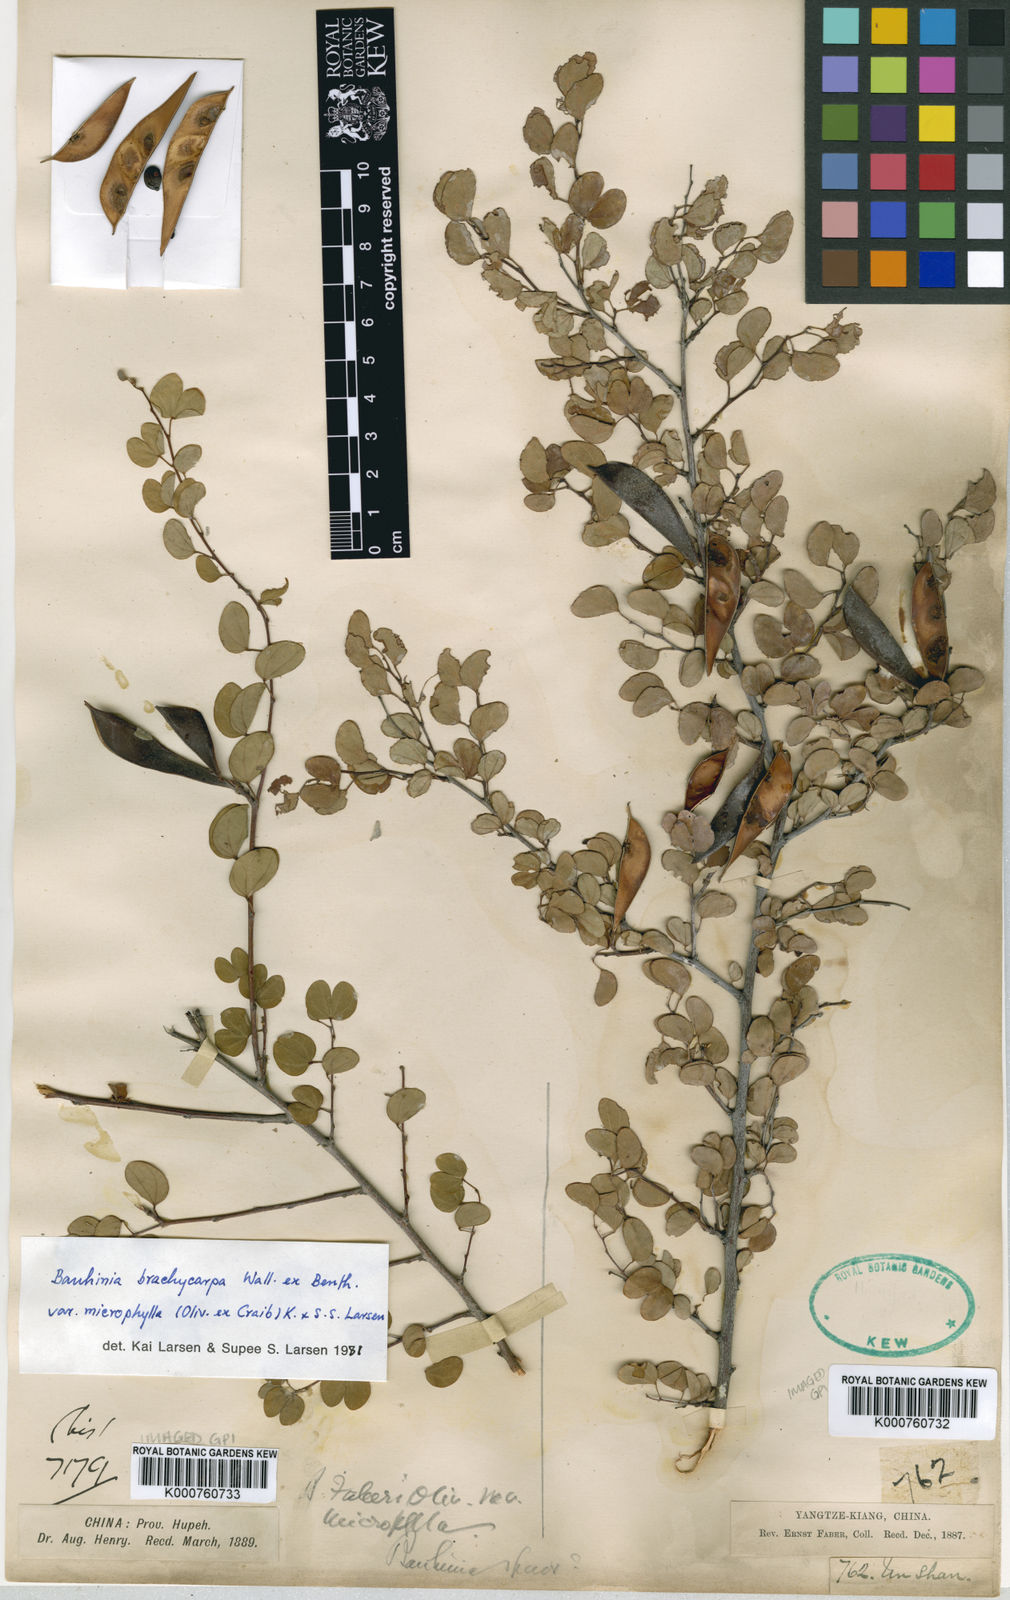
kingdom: Plantae
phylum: Tracheophyta
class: Magnoliopsida
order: Fabales
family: Fabaceae
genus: Bauhinia
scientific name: Bauhinia brachycarpa
